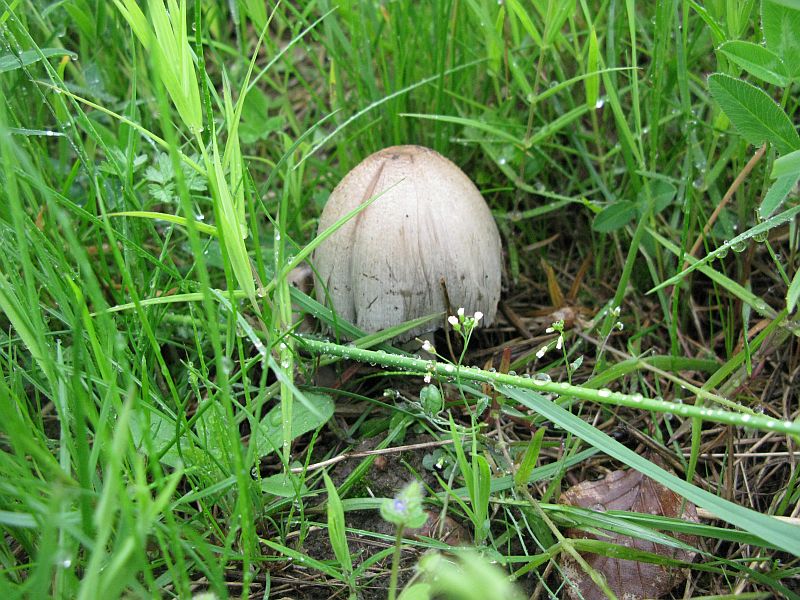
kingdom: Fungi
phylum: Basidiomycota
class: Agaricomycetes
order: Agaricales
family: Psathyrellaceae
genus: Coprinopsis
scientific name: Coprinopsis atramentaria
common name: almindelig blækhat
